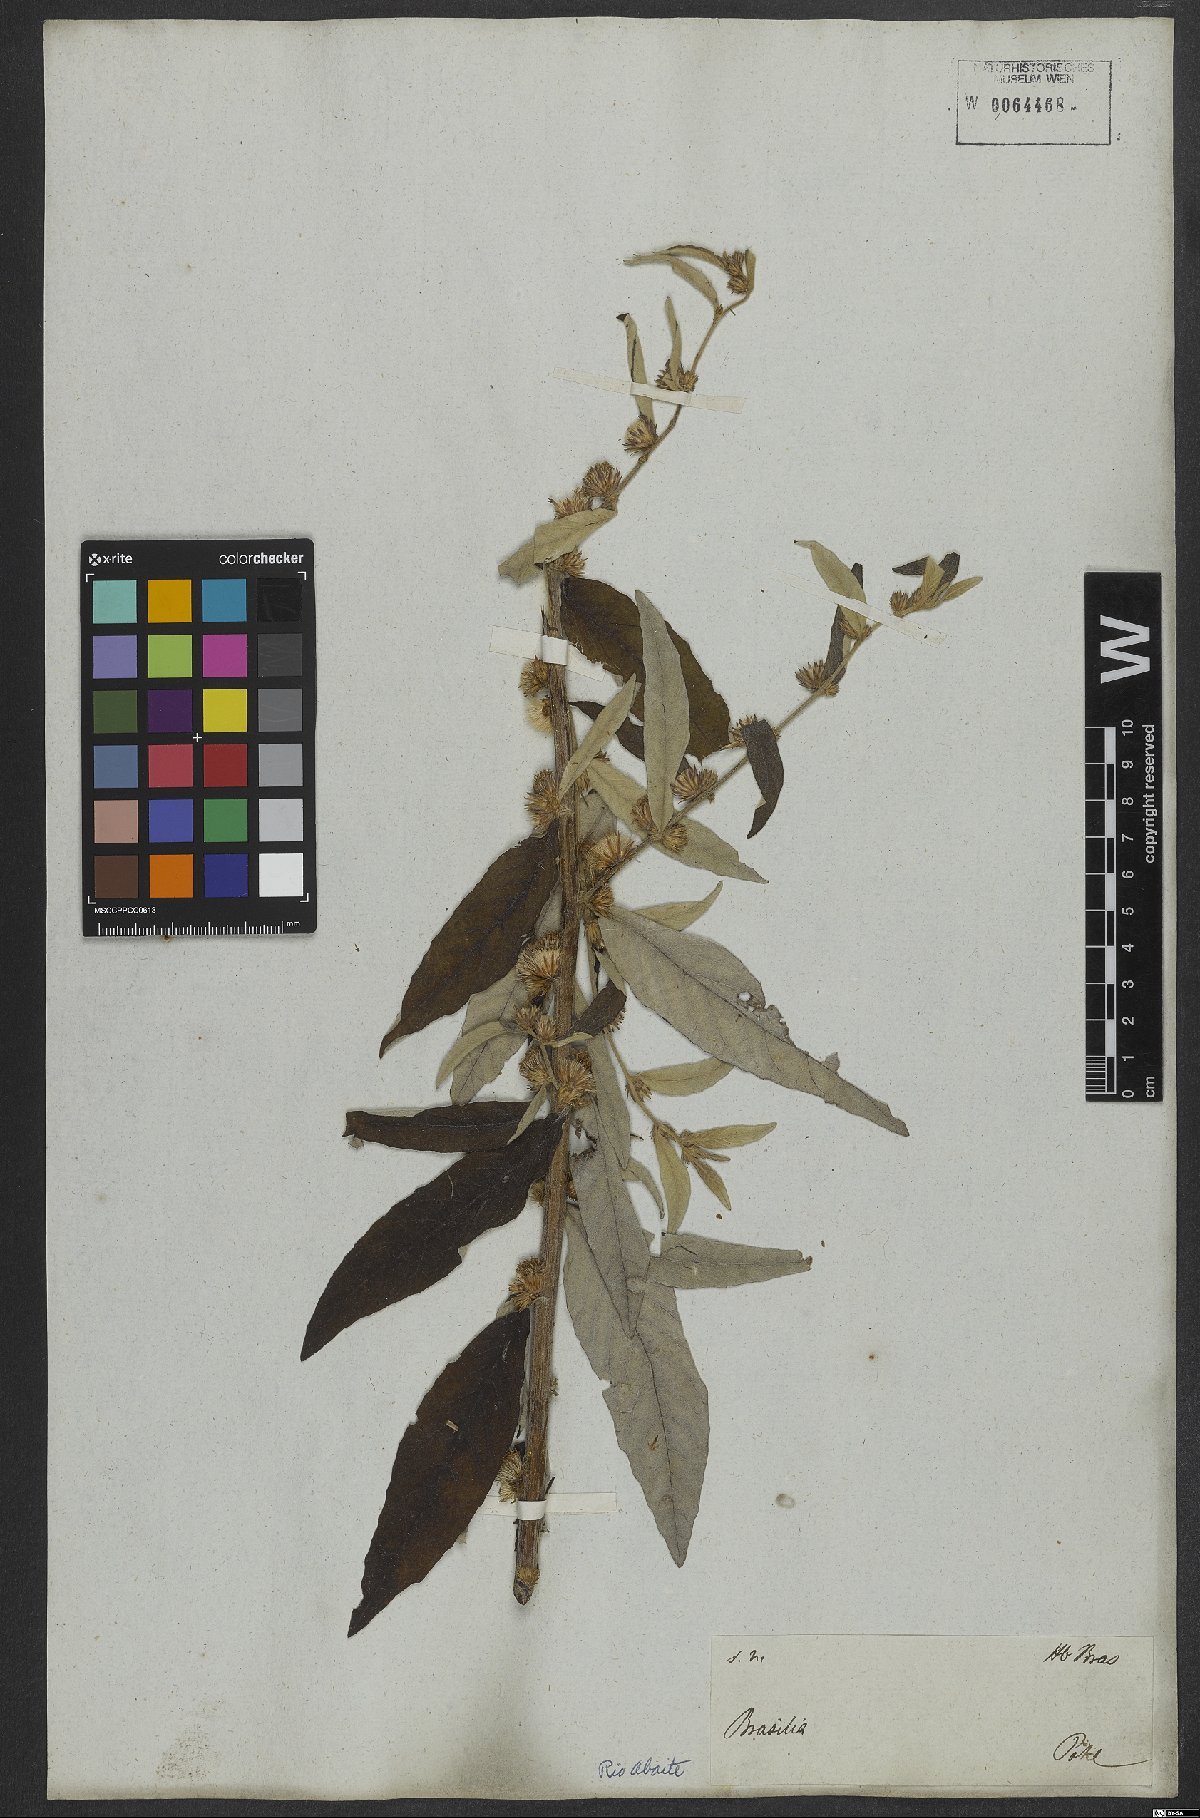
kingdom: Plantae
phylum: Tracheophyta
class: Magnoliopsida
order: Asterales
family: Asteraceae
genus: Lepidaploa
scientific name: Lepidaploa canescens
